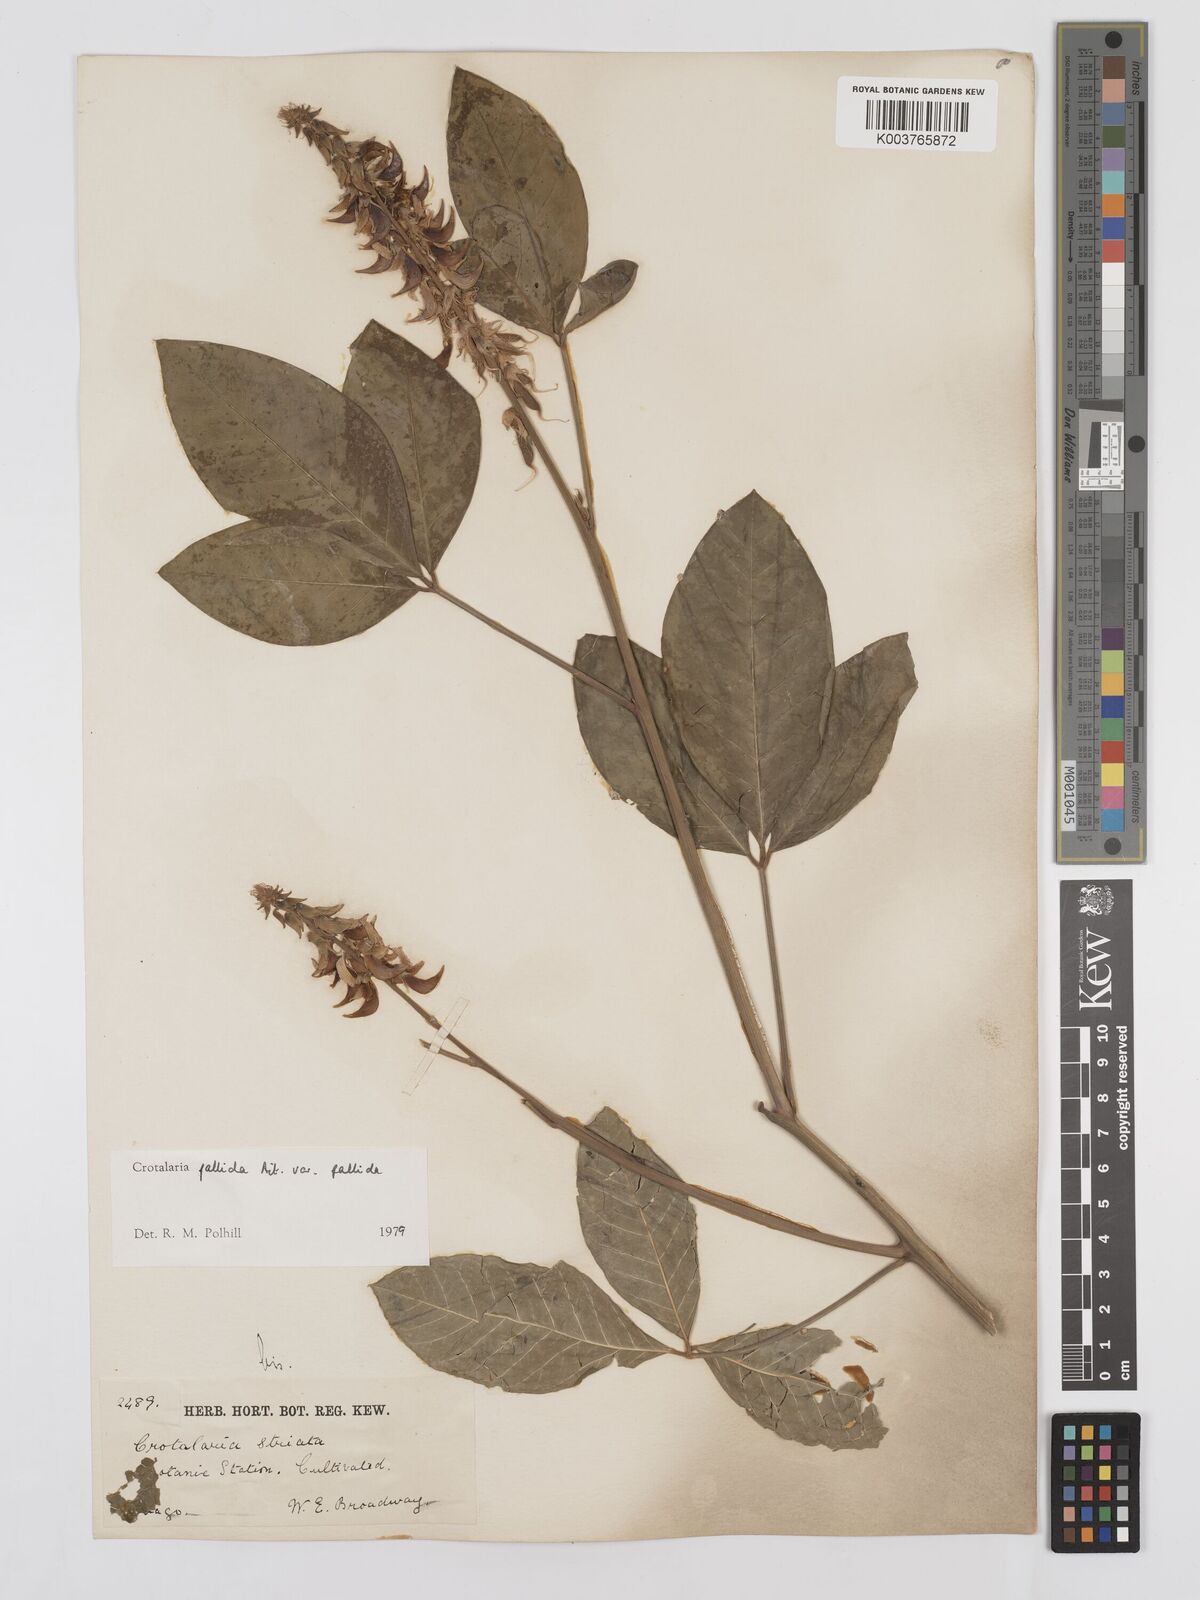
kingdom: Plantae
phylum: Tracheophyta
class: Magnoliopsida
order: Fabales
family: Fabaceae
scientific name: Fabaceae
